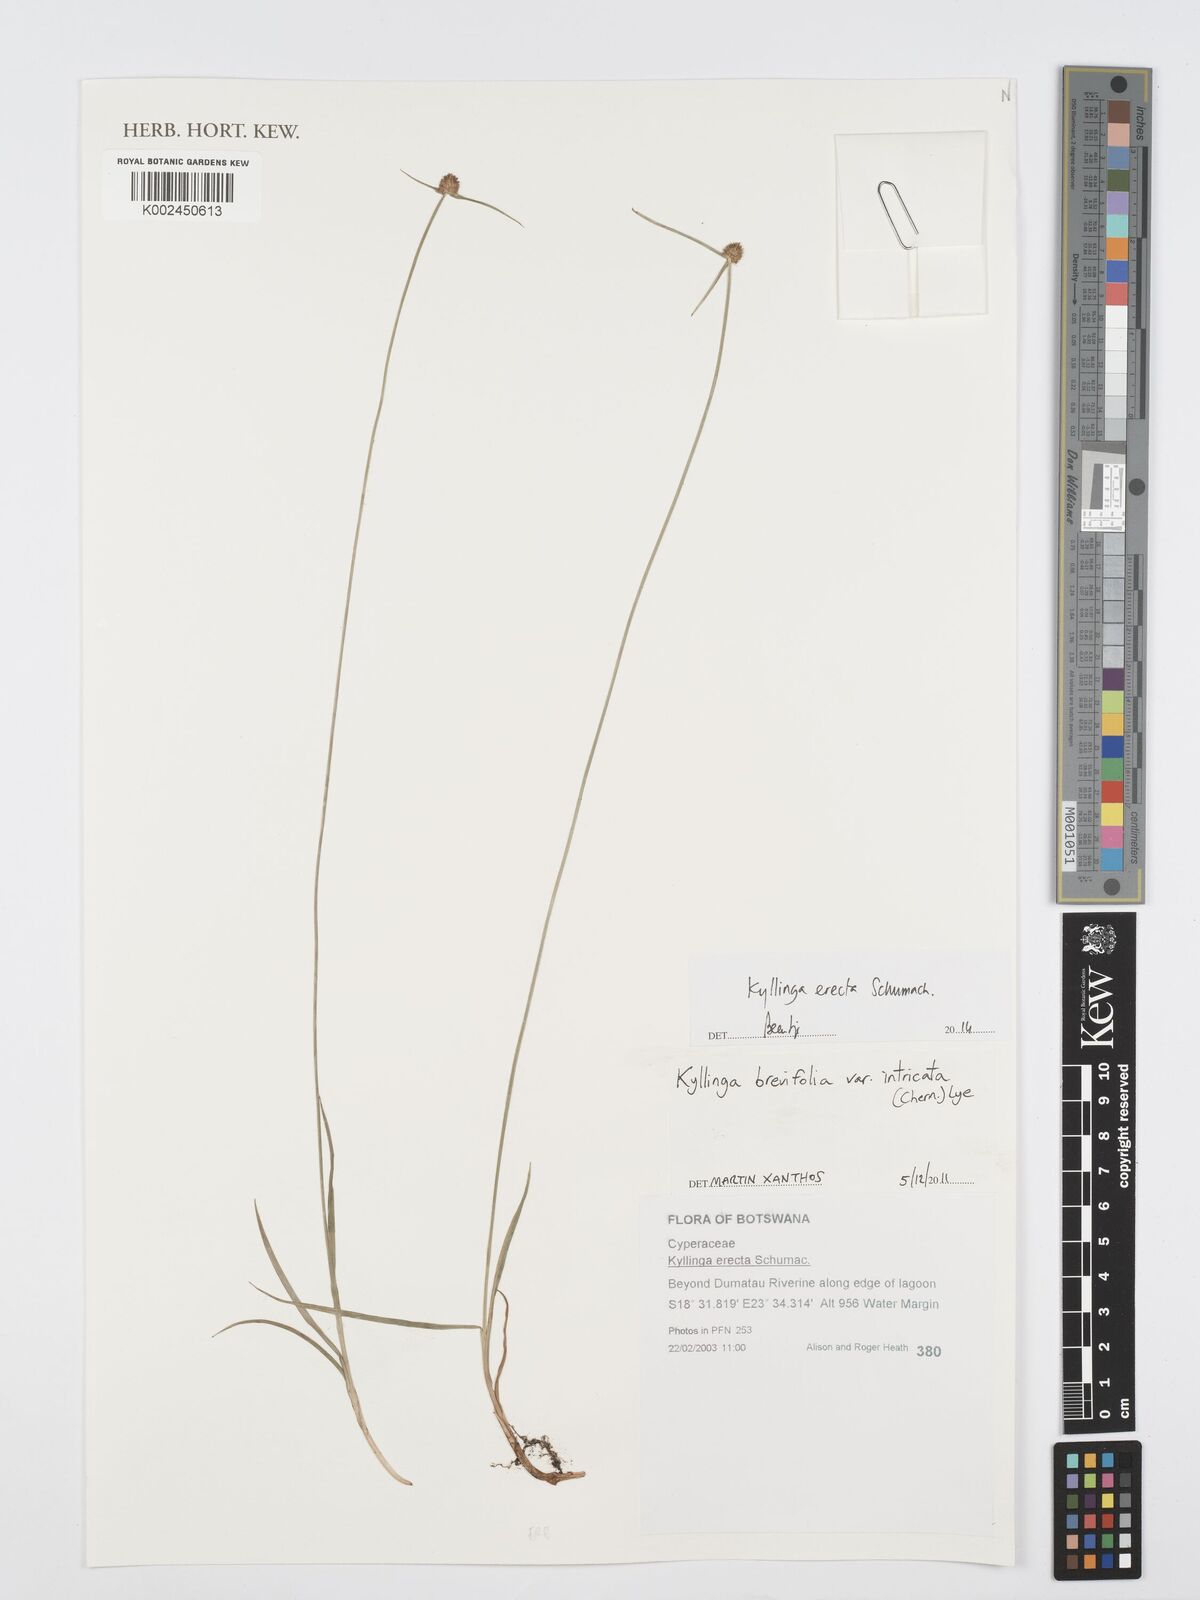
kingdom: Plantae
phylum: Tracheophyta
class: Liliopsida
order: Poales
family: Cyperaceae
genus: Cyperus
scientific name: Cyperus erectus
